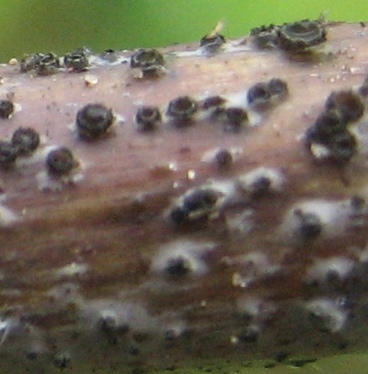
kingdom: Fungi
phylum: Ascomycota
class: Leotiomycetes
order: Helotiales
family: Ploettnerulaceae
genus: Pyrenopeziza
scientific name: Pyrenopeziza rubi
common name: hindbær-kerneskive
